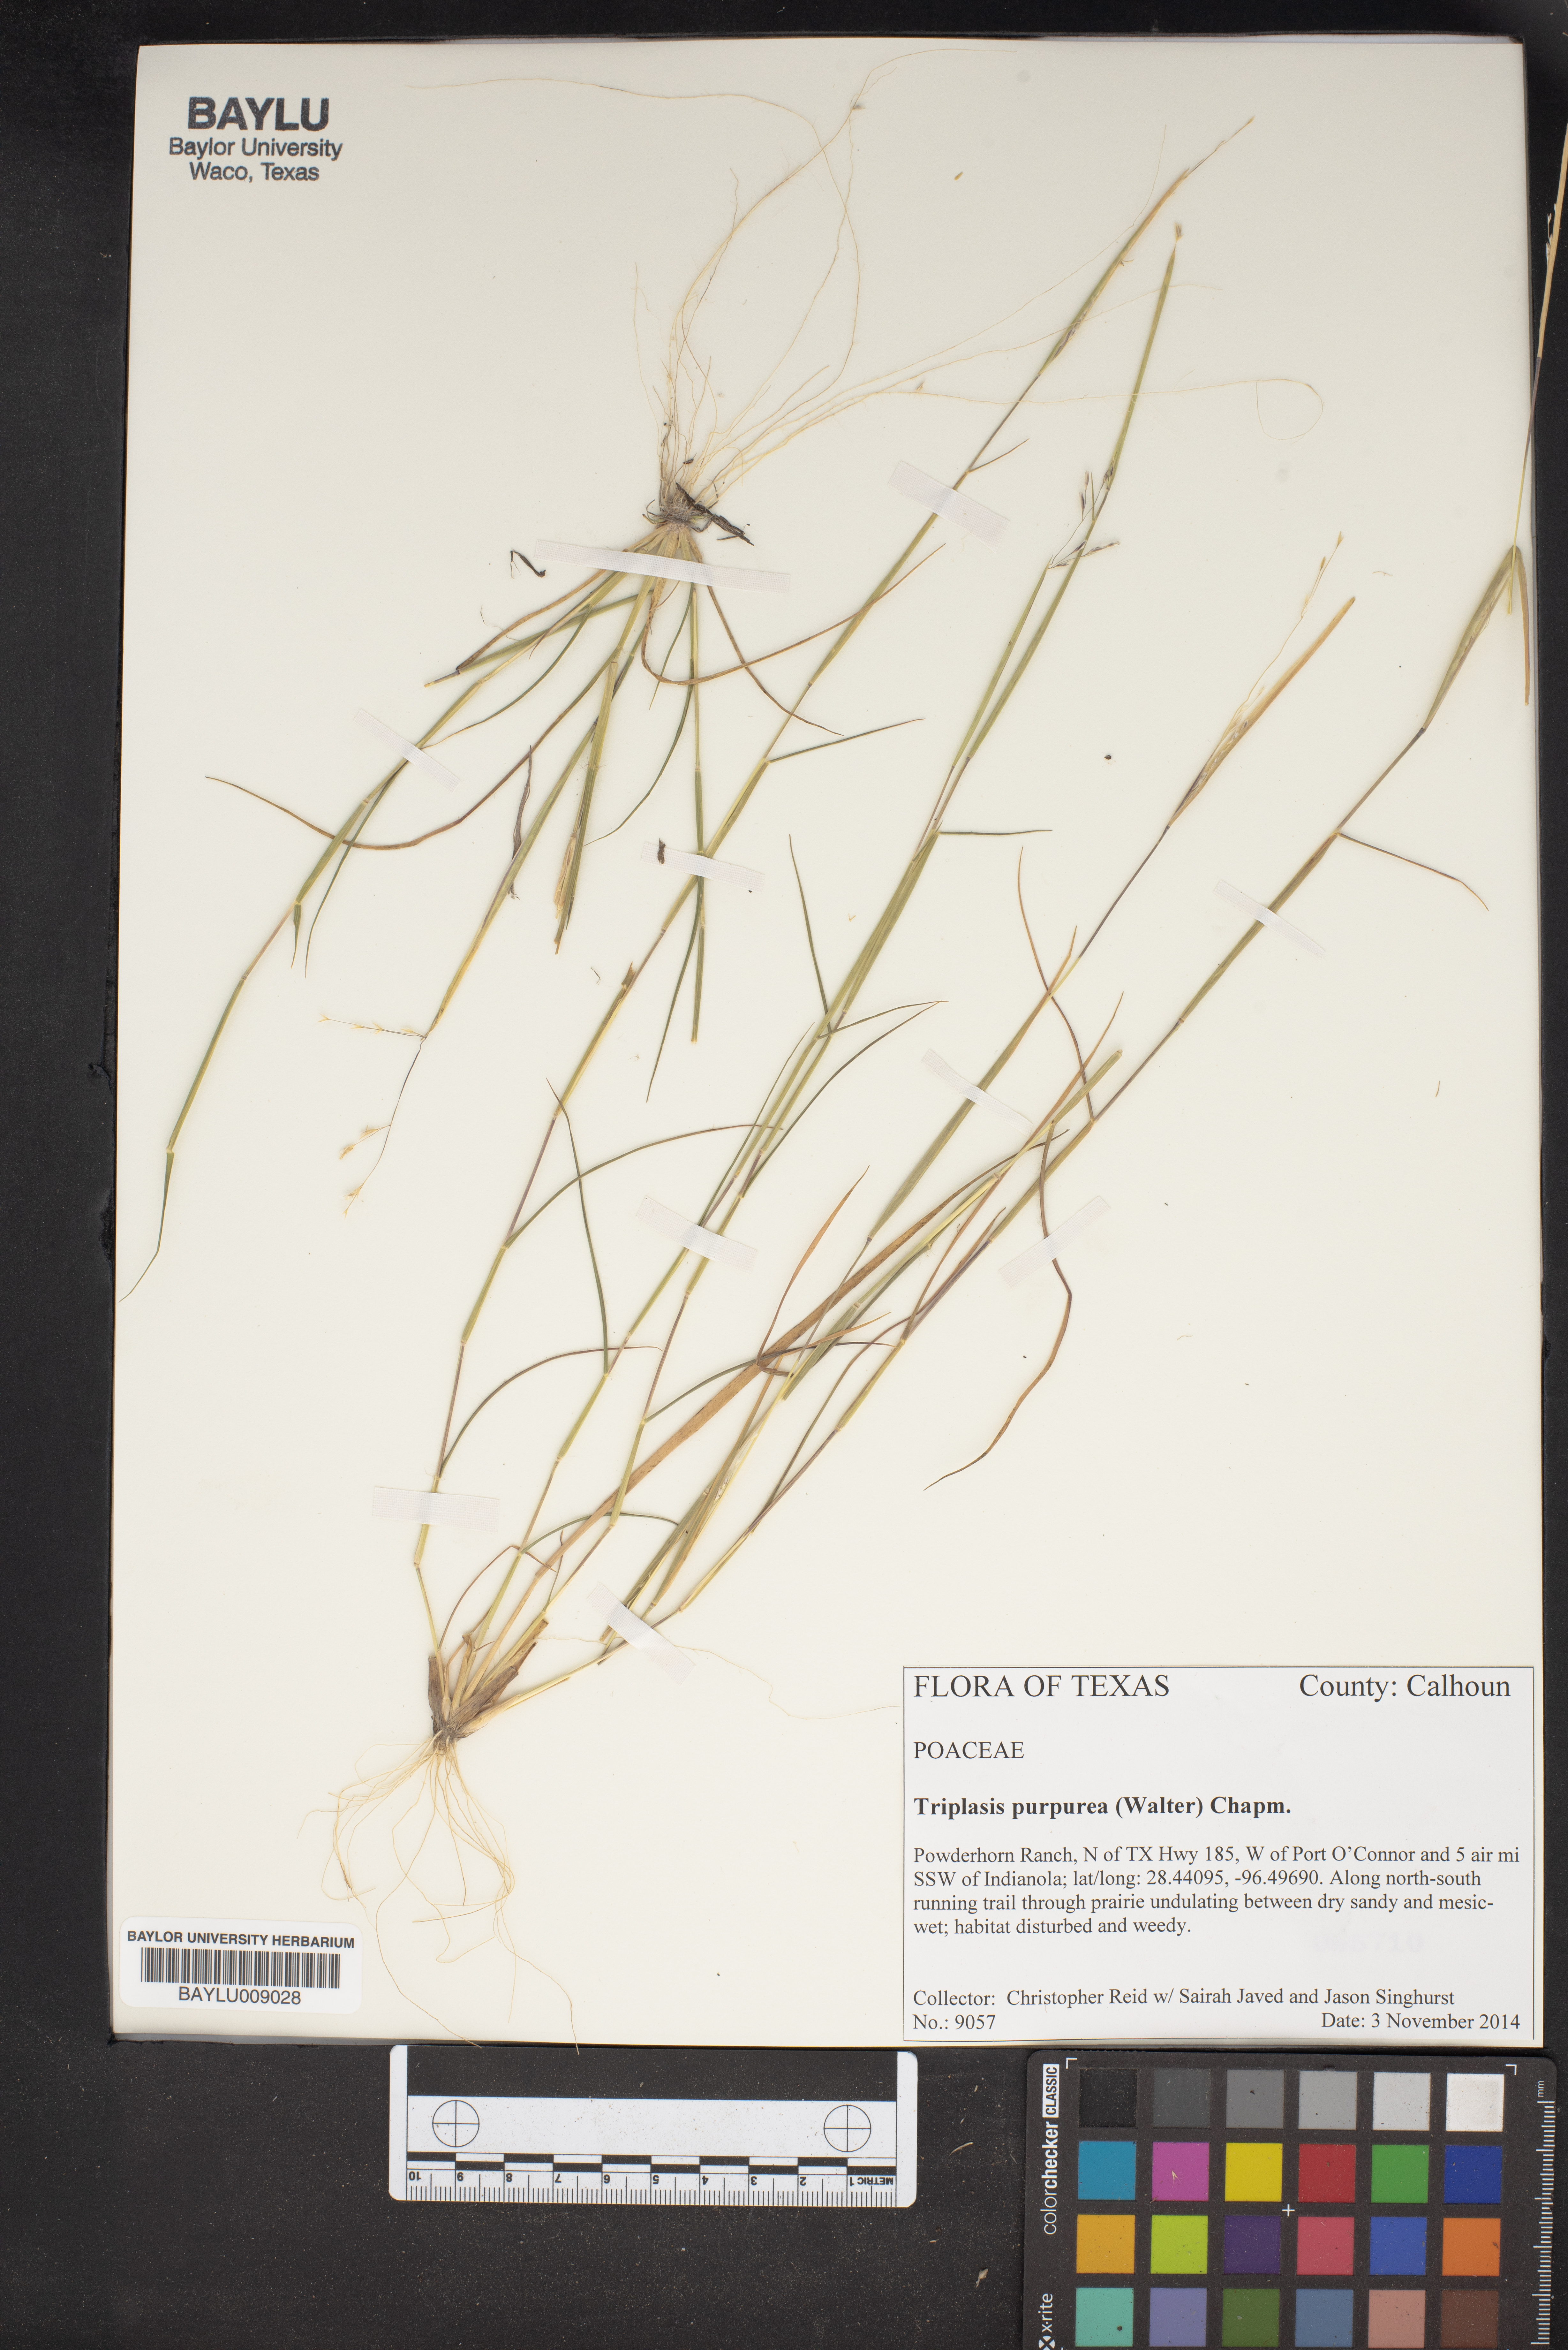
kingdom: Plantae
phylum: Tracheophyta
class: Liliopsida
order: Poales
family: Poaceae
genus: Triplasis
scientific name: Triplasis purpurea
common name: Purple sand grass
